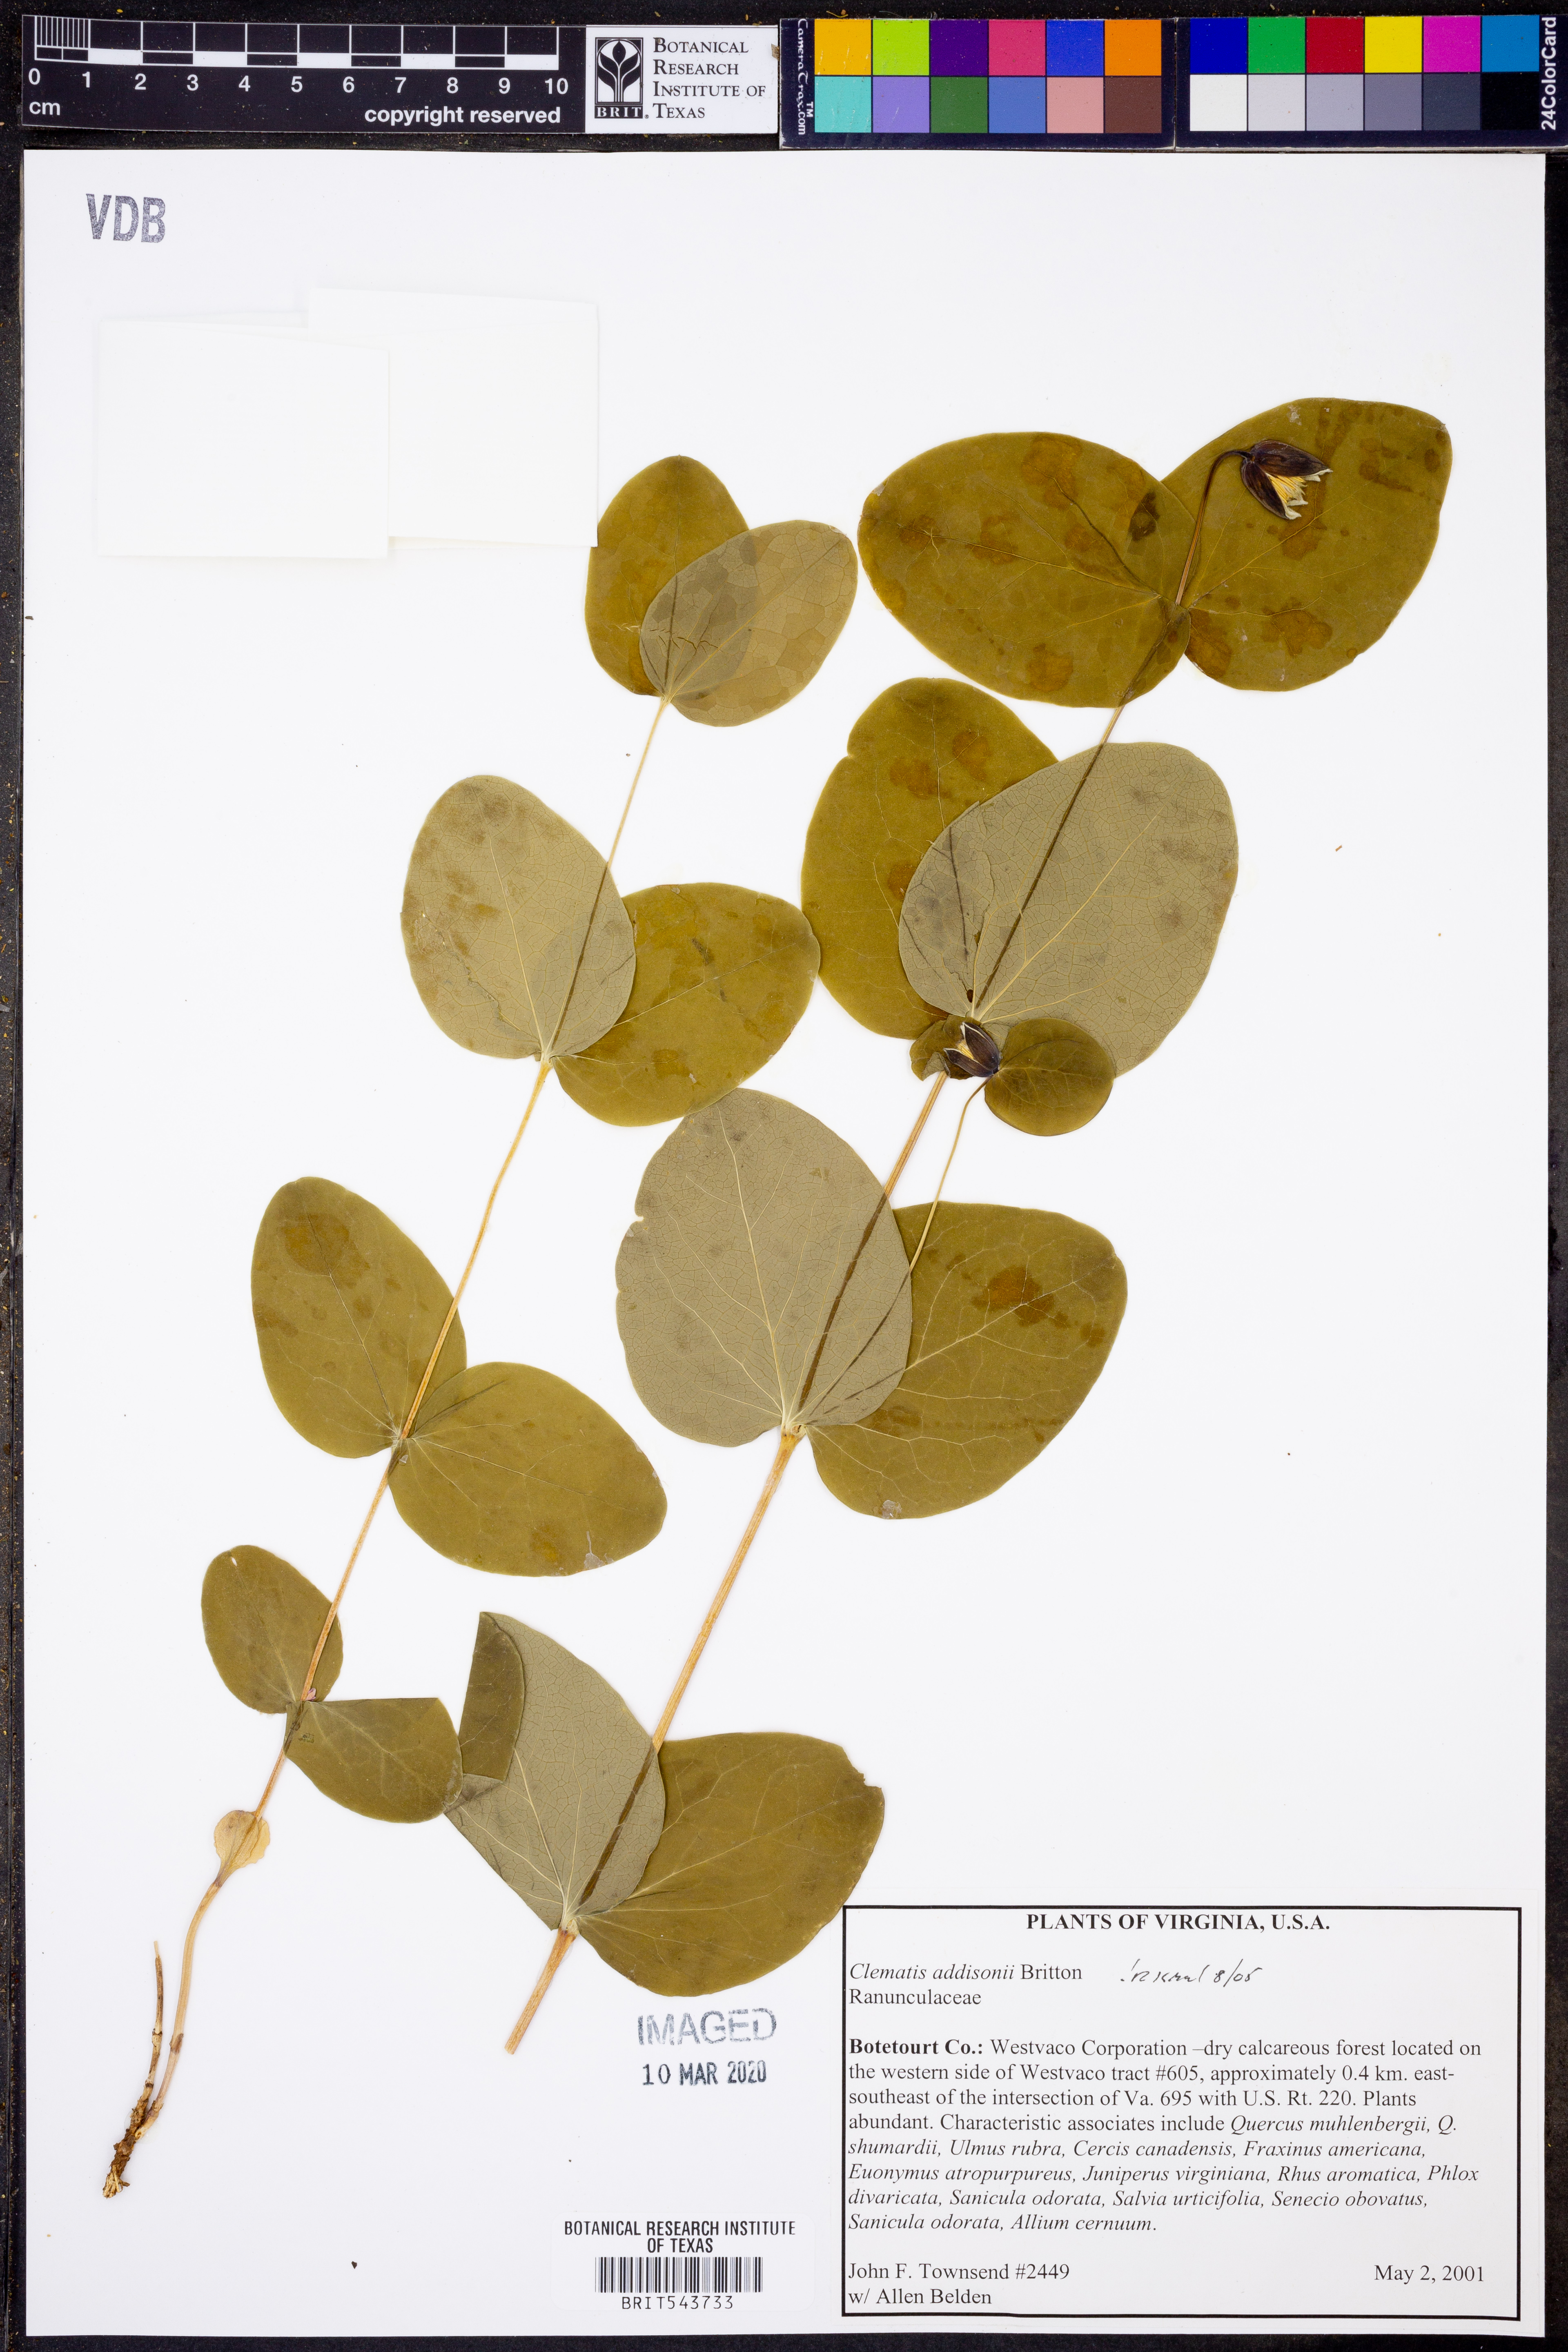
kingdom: Plantae
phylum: Tracheophyta
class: Magnoliopsida
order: Ranunculales
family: Ranunculaceae
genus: Clematis
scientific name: Clematis addisonii
